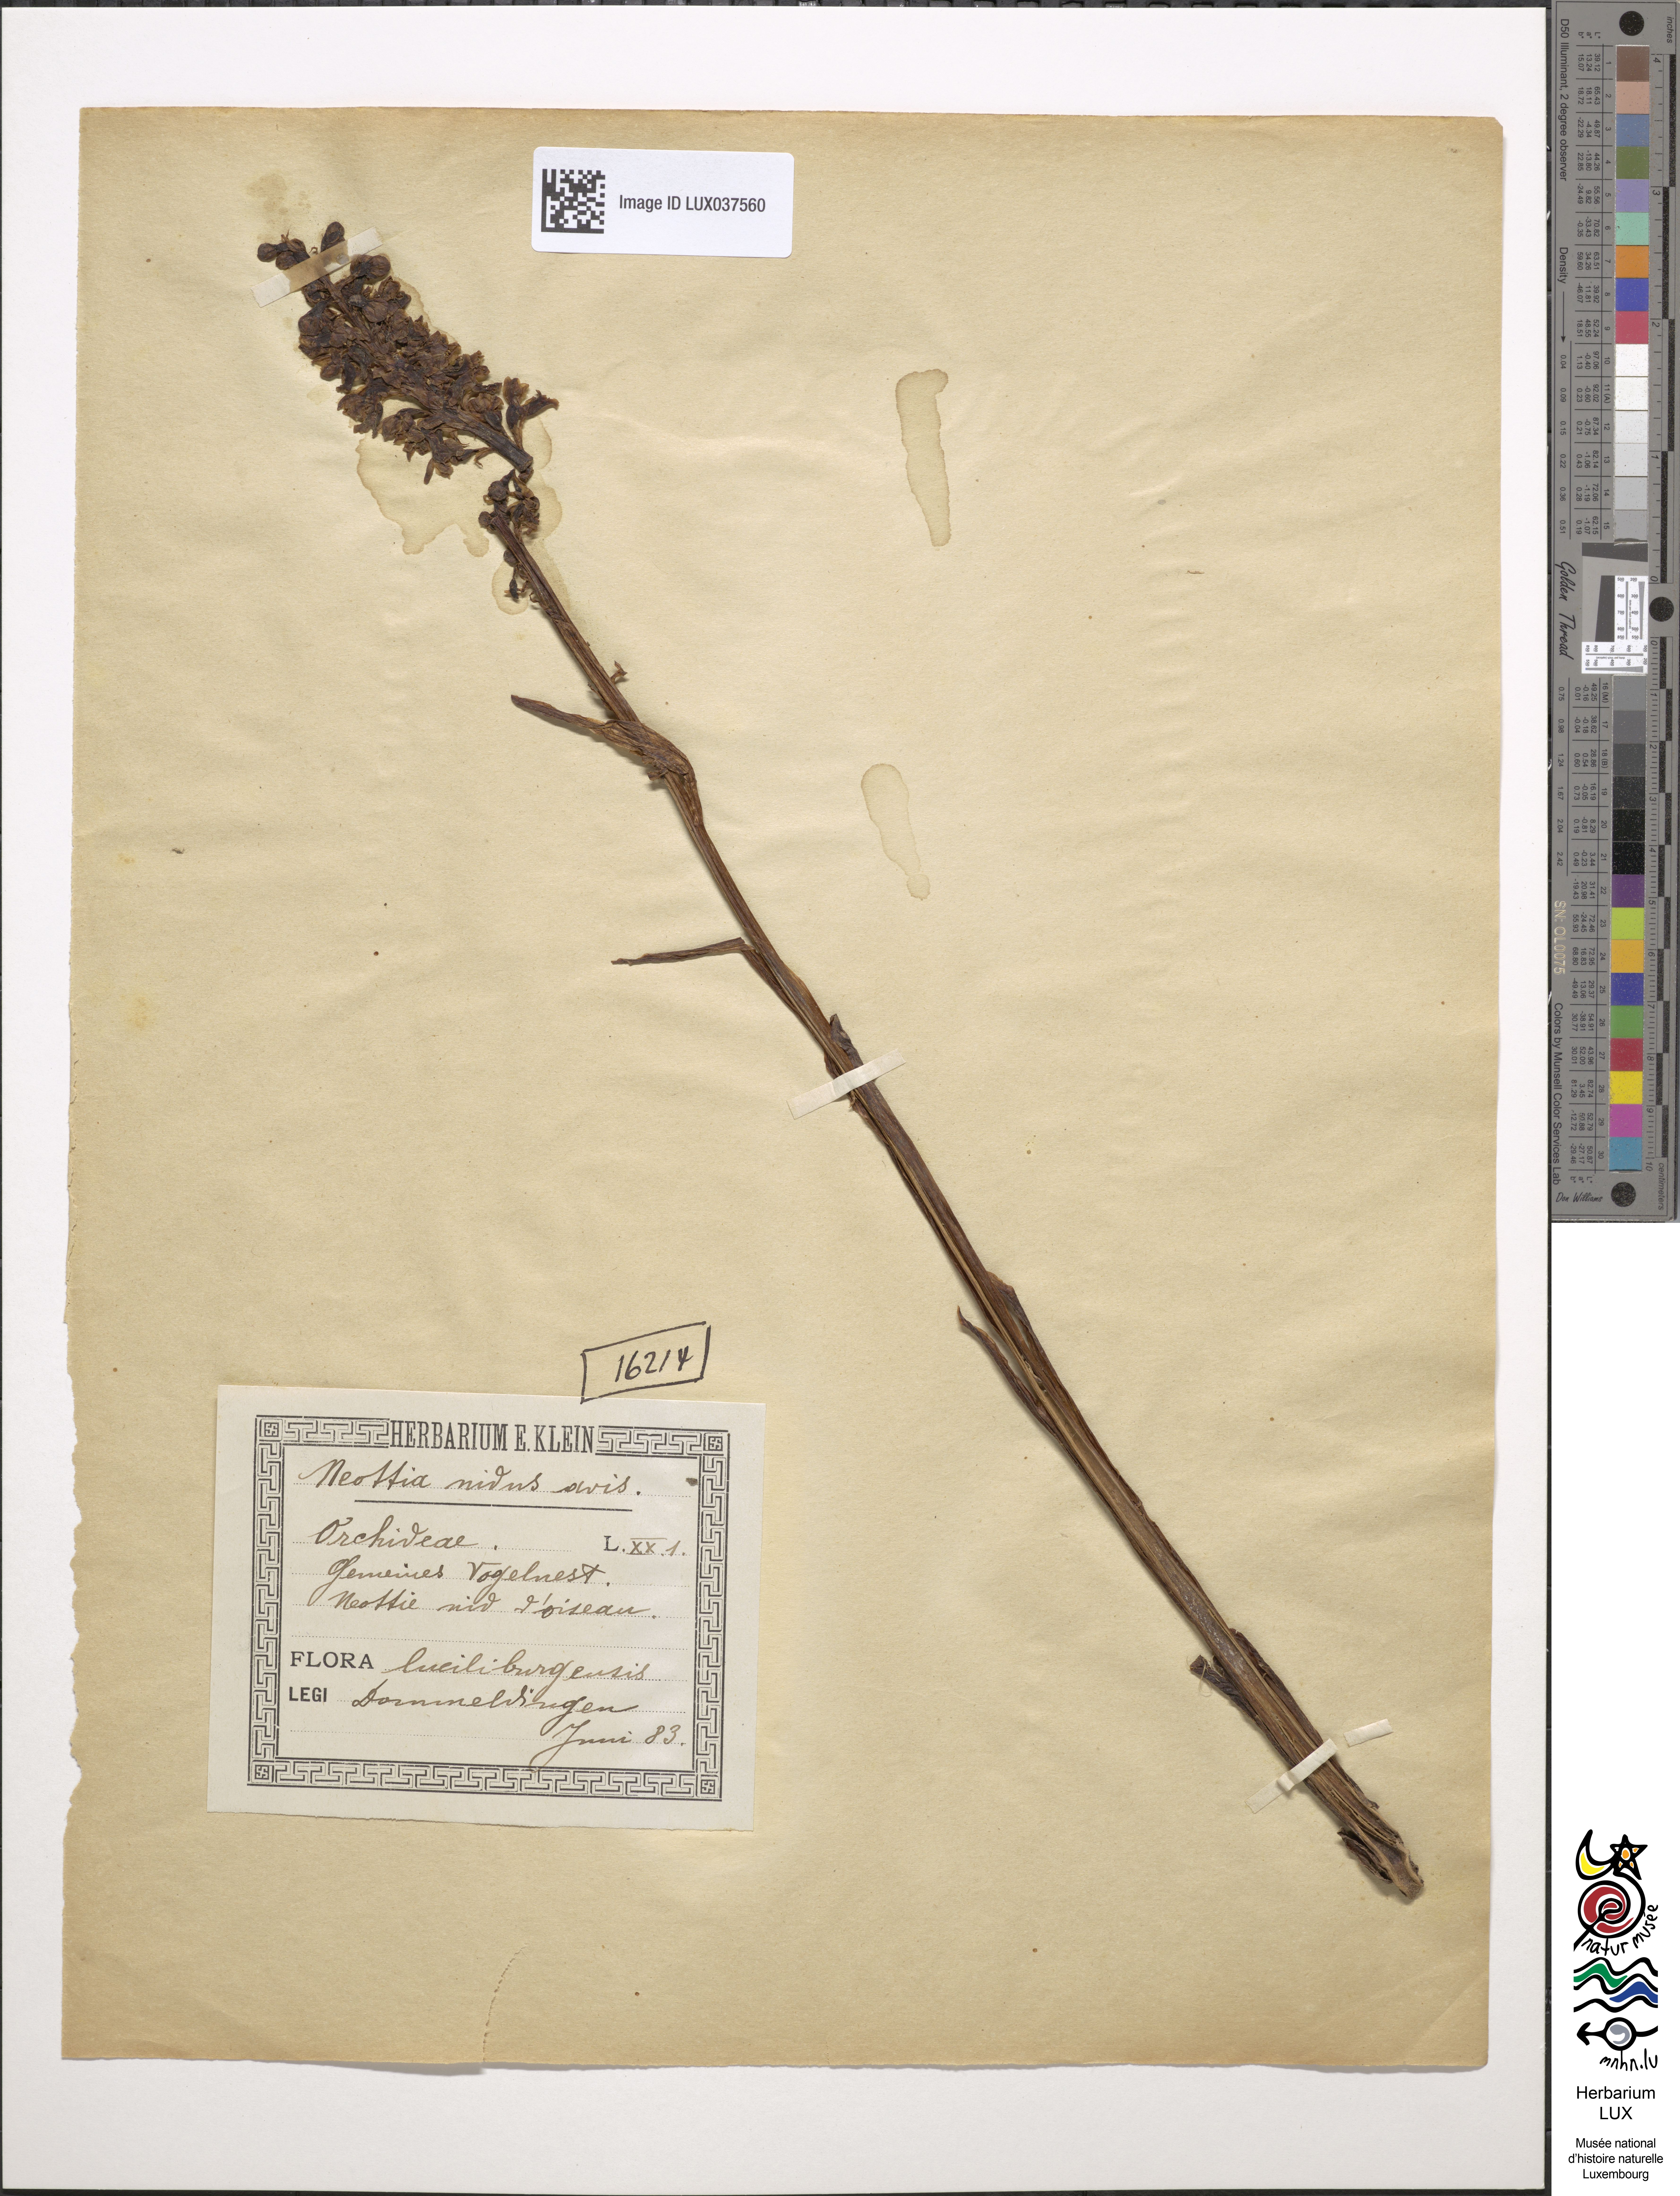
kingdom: Plantae
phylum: Tracheophyta
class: Liliopsida
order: Asparagales
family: Orchidaceae
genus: Neottia
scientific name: Neottia nidus-avis
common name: Bird's-nest orchid
